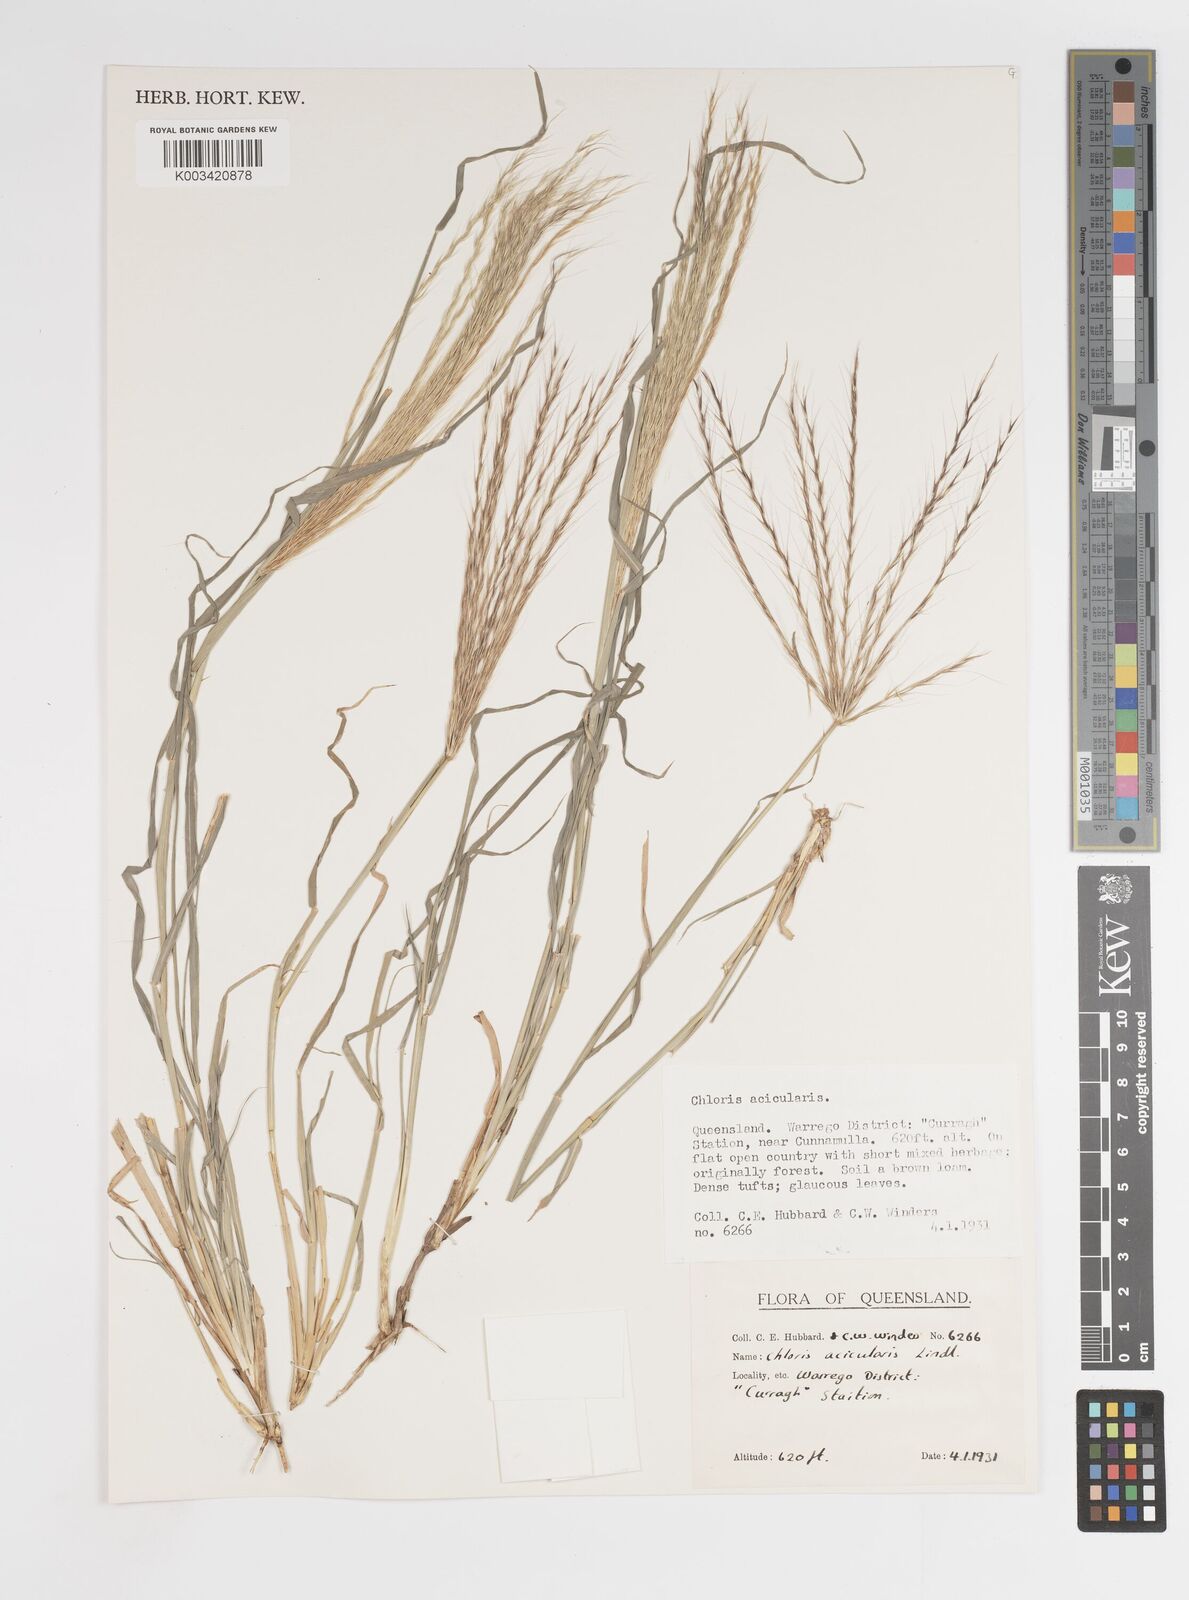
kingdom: Plantae
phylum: Tracheophyta
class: Liliopsida
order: Poales
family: Poaceae
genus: Enteropogon
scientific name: Enteropogon acicularis
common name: Curly windmill grass
